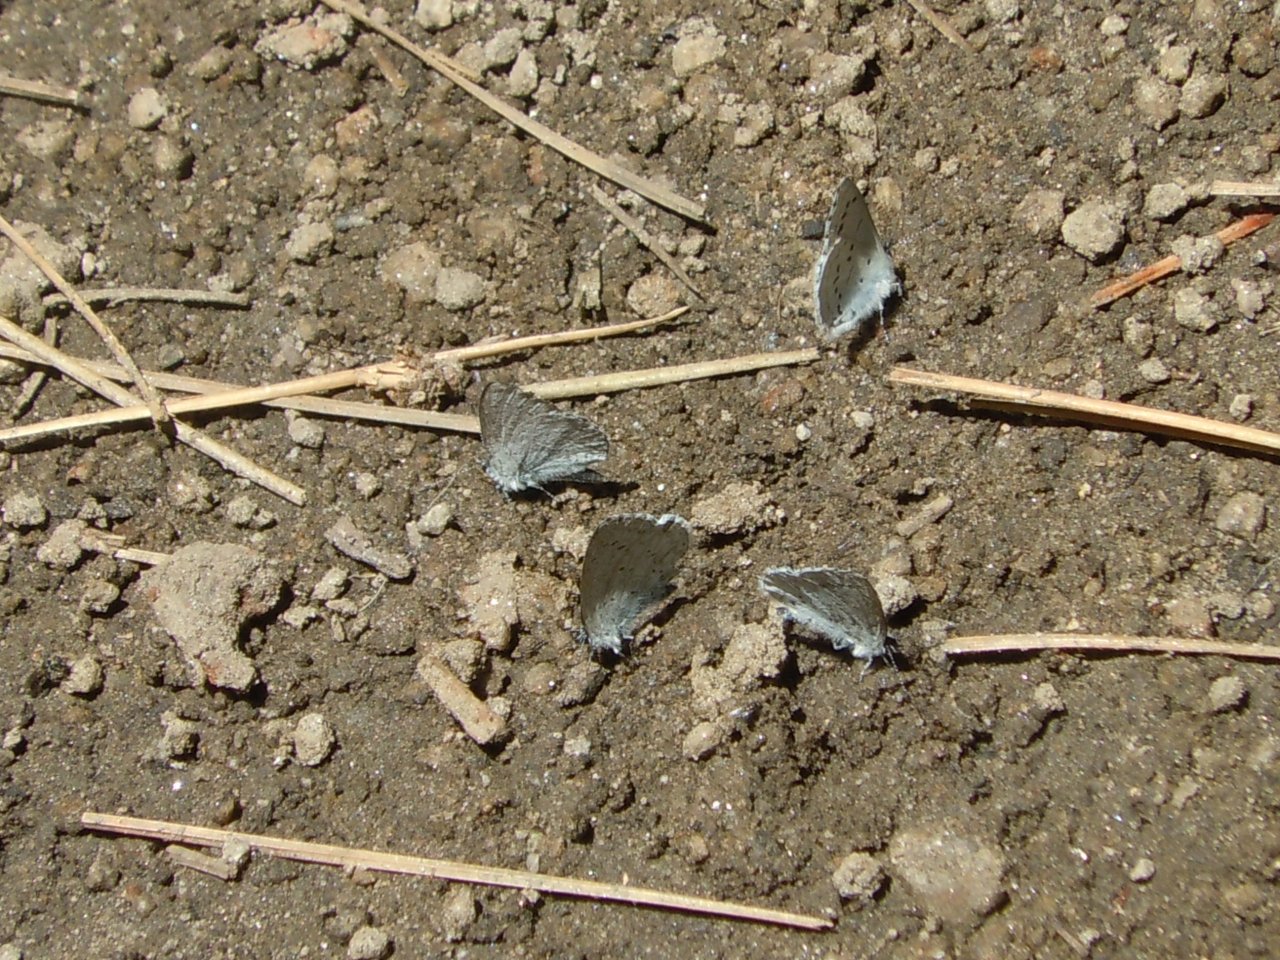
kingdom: Animalia
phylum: Arthropoda
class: Insecta
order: Lepidoptera
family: Lycaenidae
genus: Celastrina
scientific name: Celastrina ladon
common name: Spring Azure
